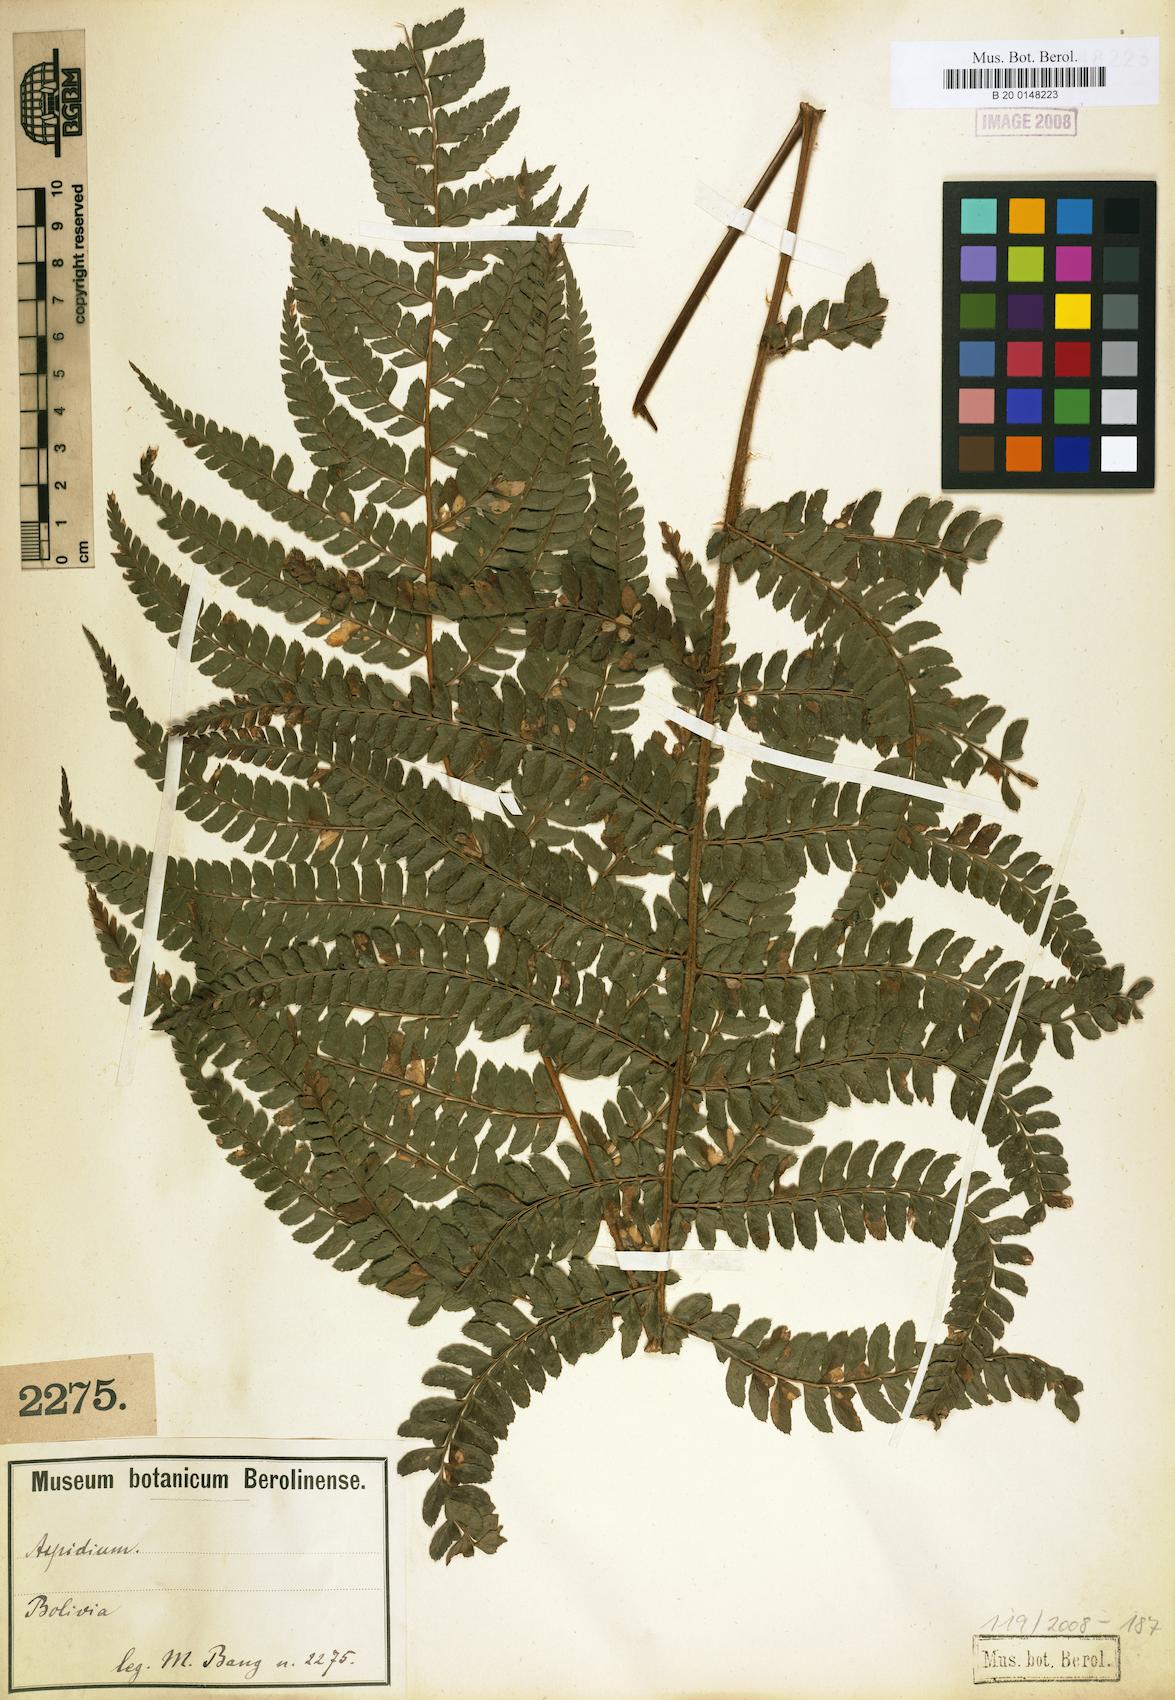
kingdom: Plantae
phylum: Tracheophyta
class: Polypodiopsida
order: Polypodiales
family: Dryopteridaceae
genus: Polystichum
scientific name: Polystichum
